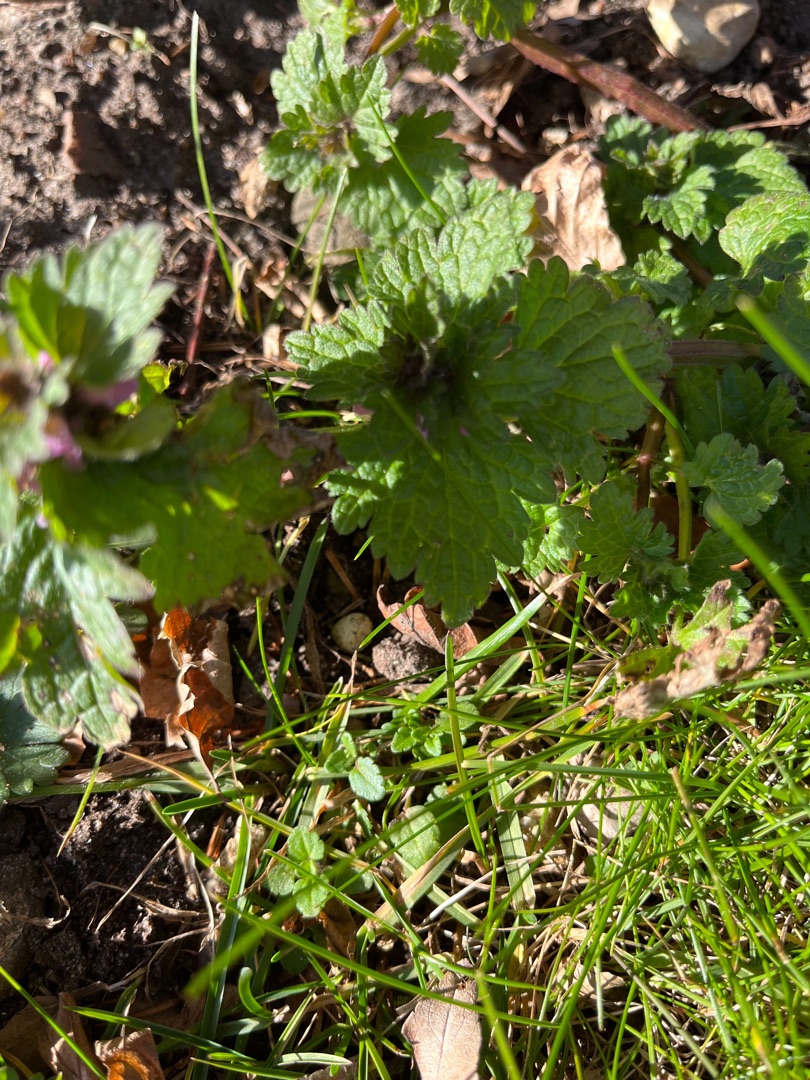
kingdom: Plantae
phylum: Tracheophyta
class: Magnoliopsida
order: Lamiales
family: Lamiaceae
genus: Lamium
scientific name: Lamium hybridum
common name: Fliget tvetand
